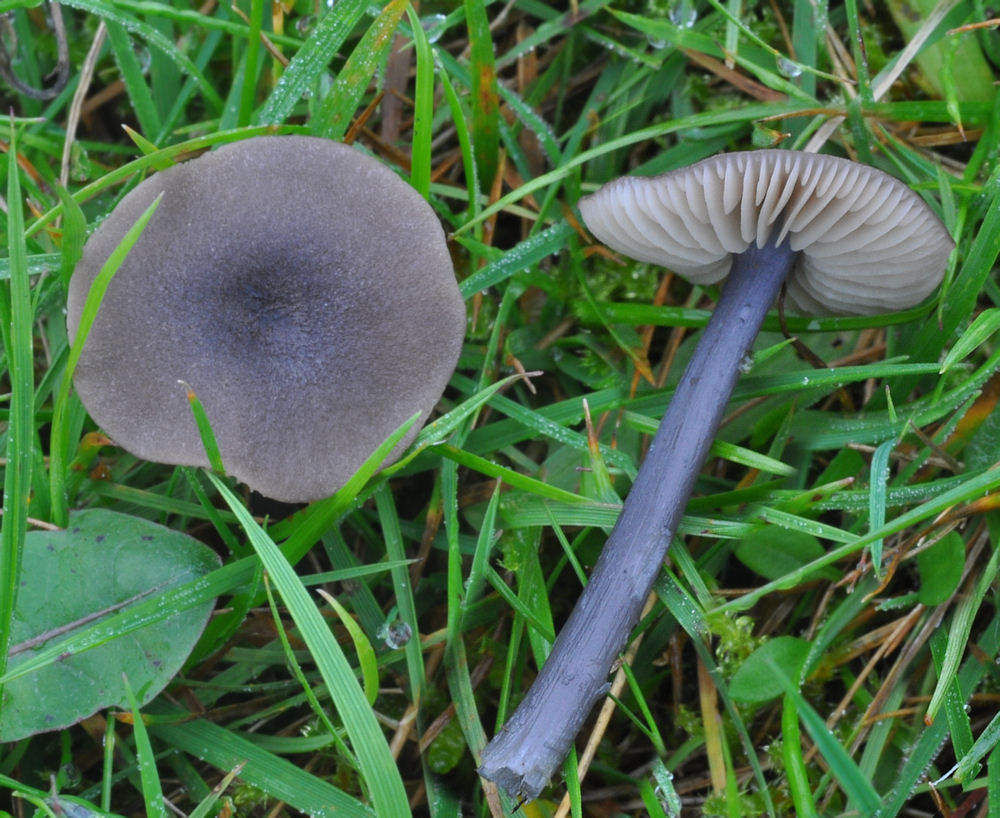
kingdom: Fungi
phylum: Basidiomycota
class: Agaricomycetes
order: Agaricales
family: Entolomataceae
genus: Entoloma
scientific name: Entoloma poliopus
